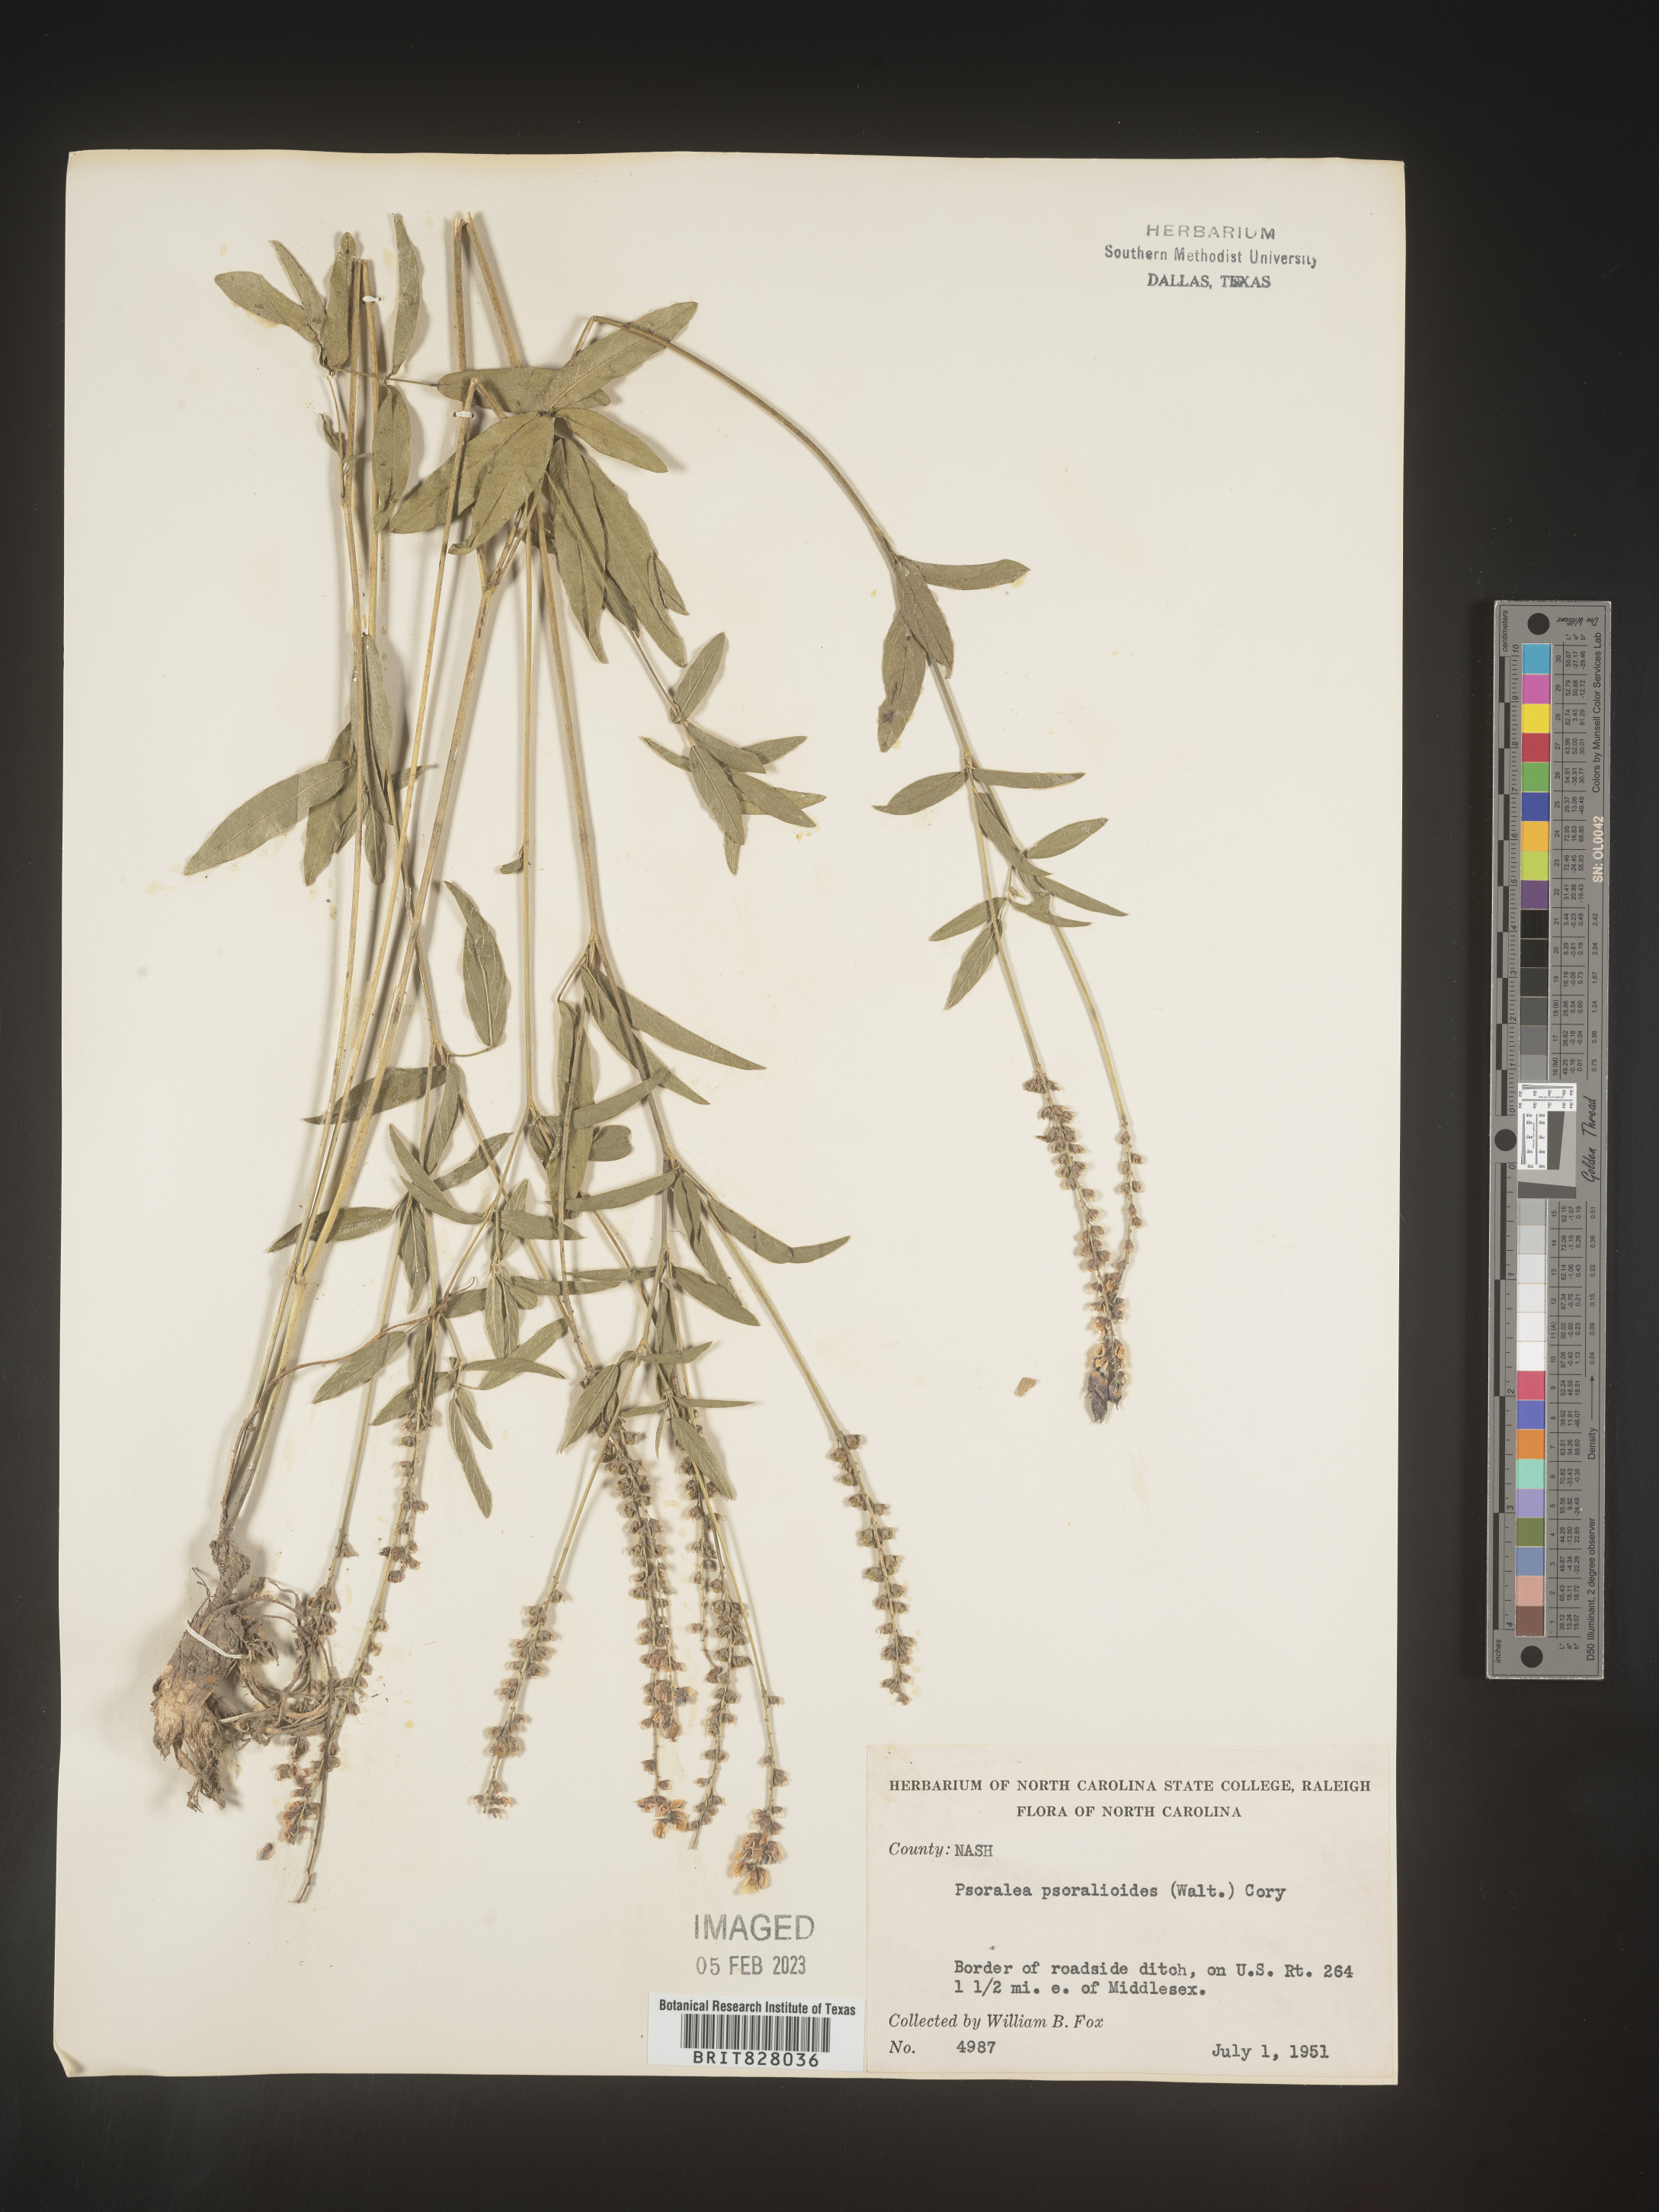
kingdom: Plantae
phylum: Tracheophyta
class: Magnoliopsida
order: Fabales
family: Fabaceae
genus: Orbexilum
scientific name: Orbexilum pedunculatum
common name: Sampson's snakeroot
